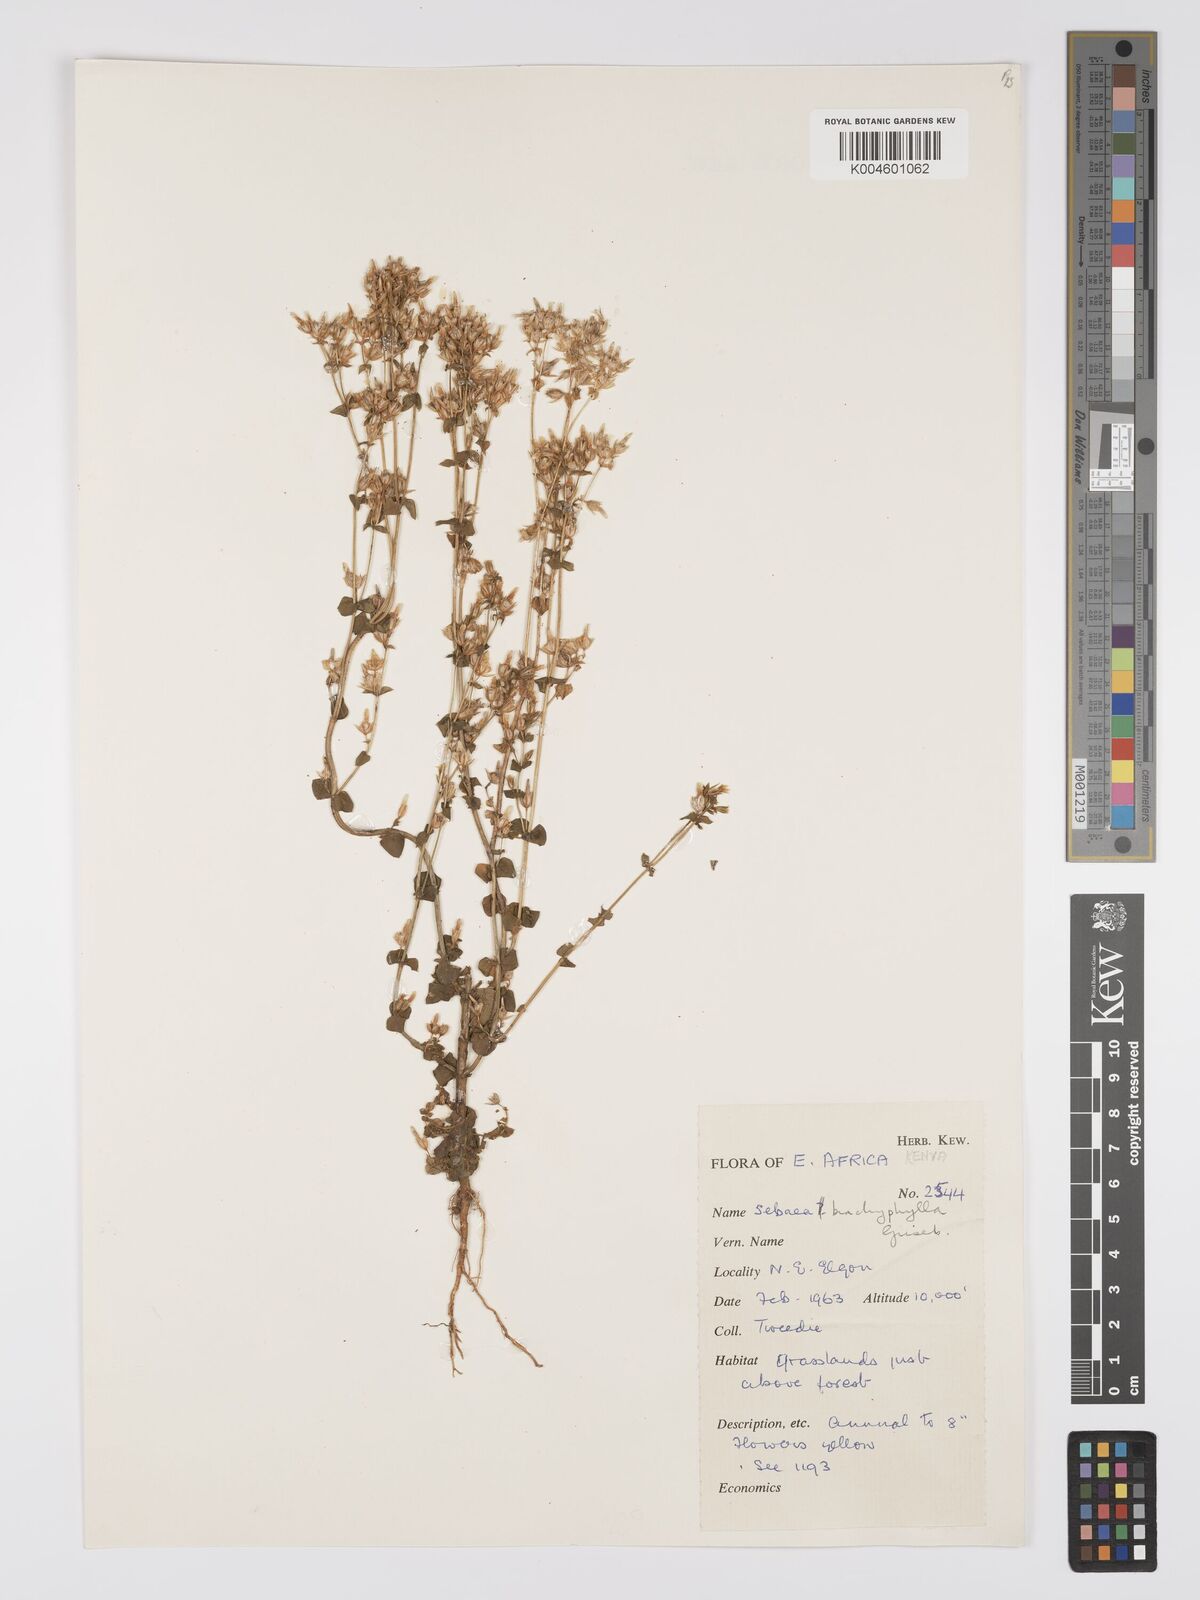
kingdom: Plantae
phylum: Tracheophyta
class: Magnoliopsida
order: Gentianales
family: Gentianaceae
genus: Sebaea
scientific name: Sebaea brachyphylla
